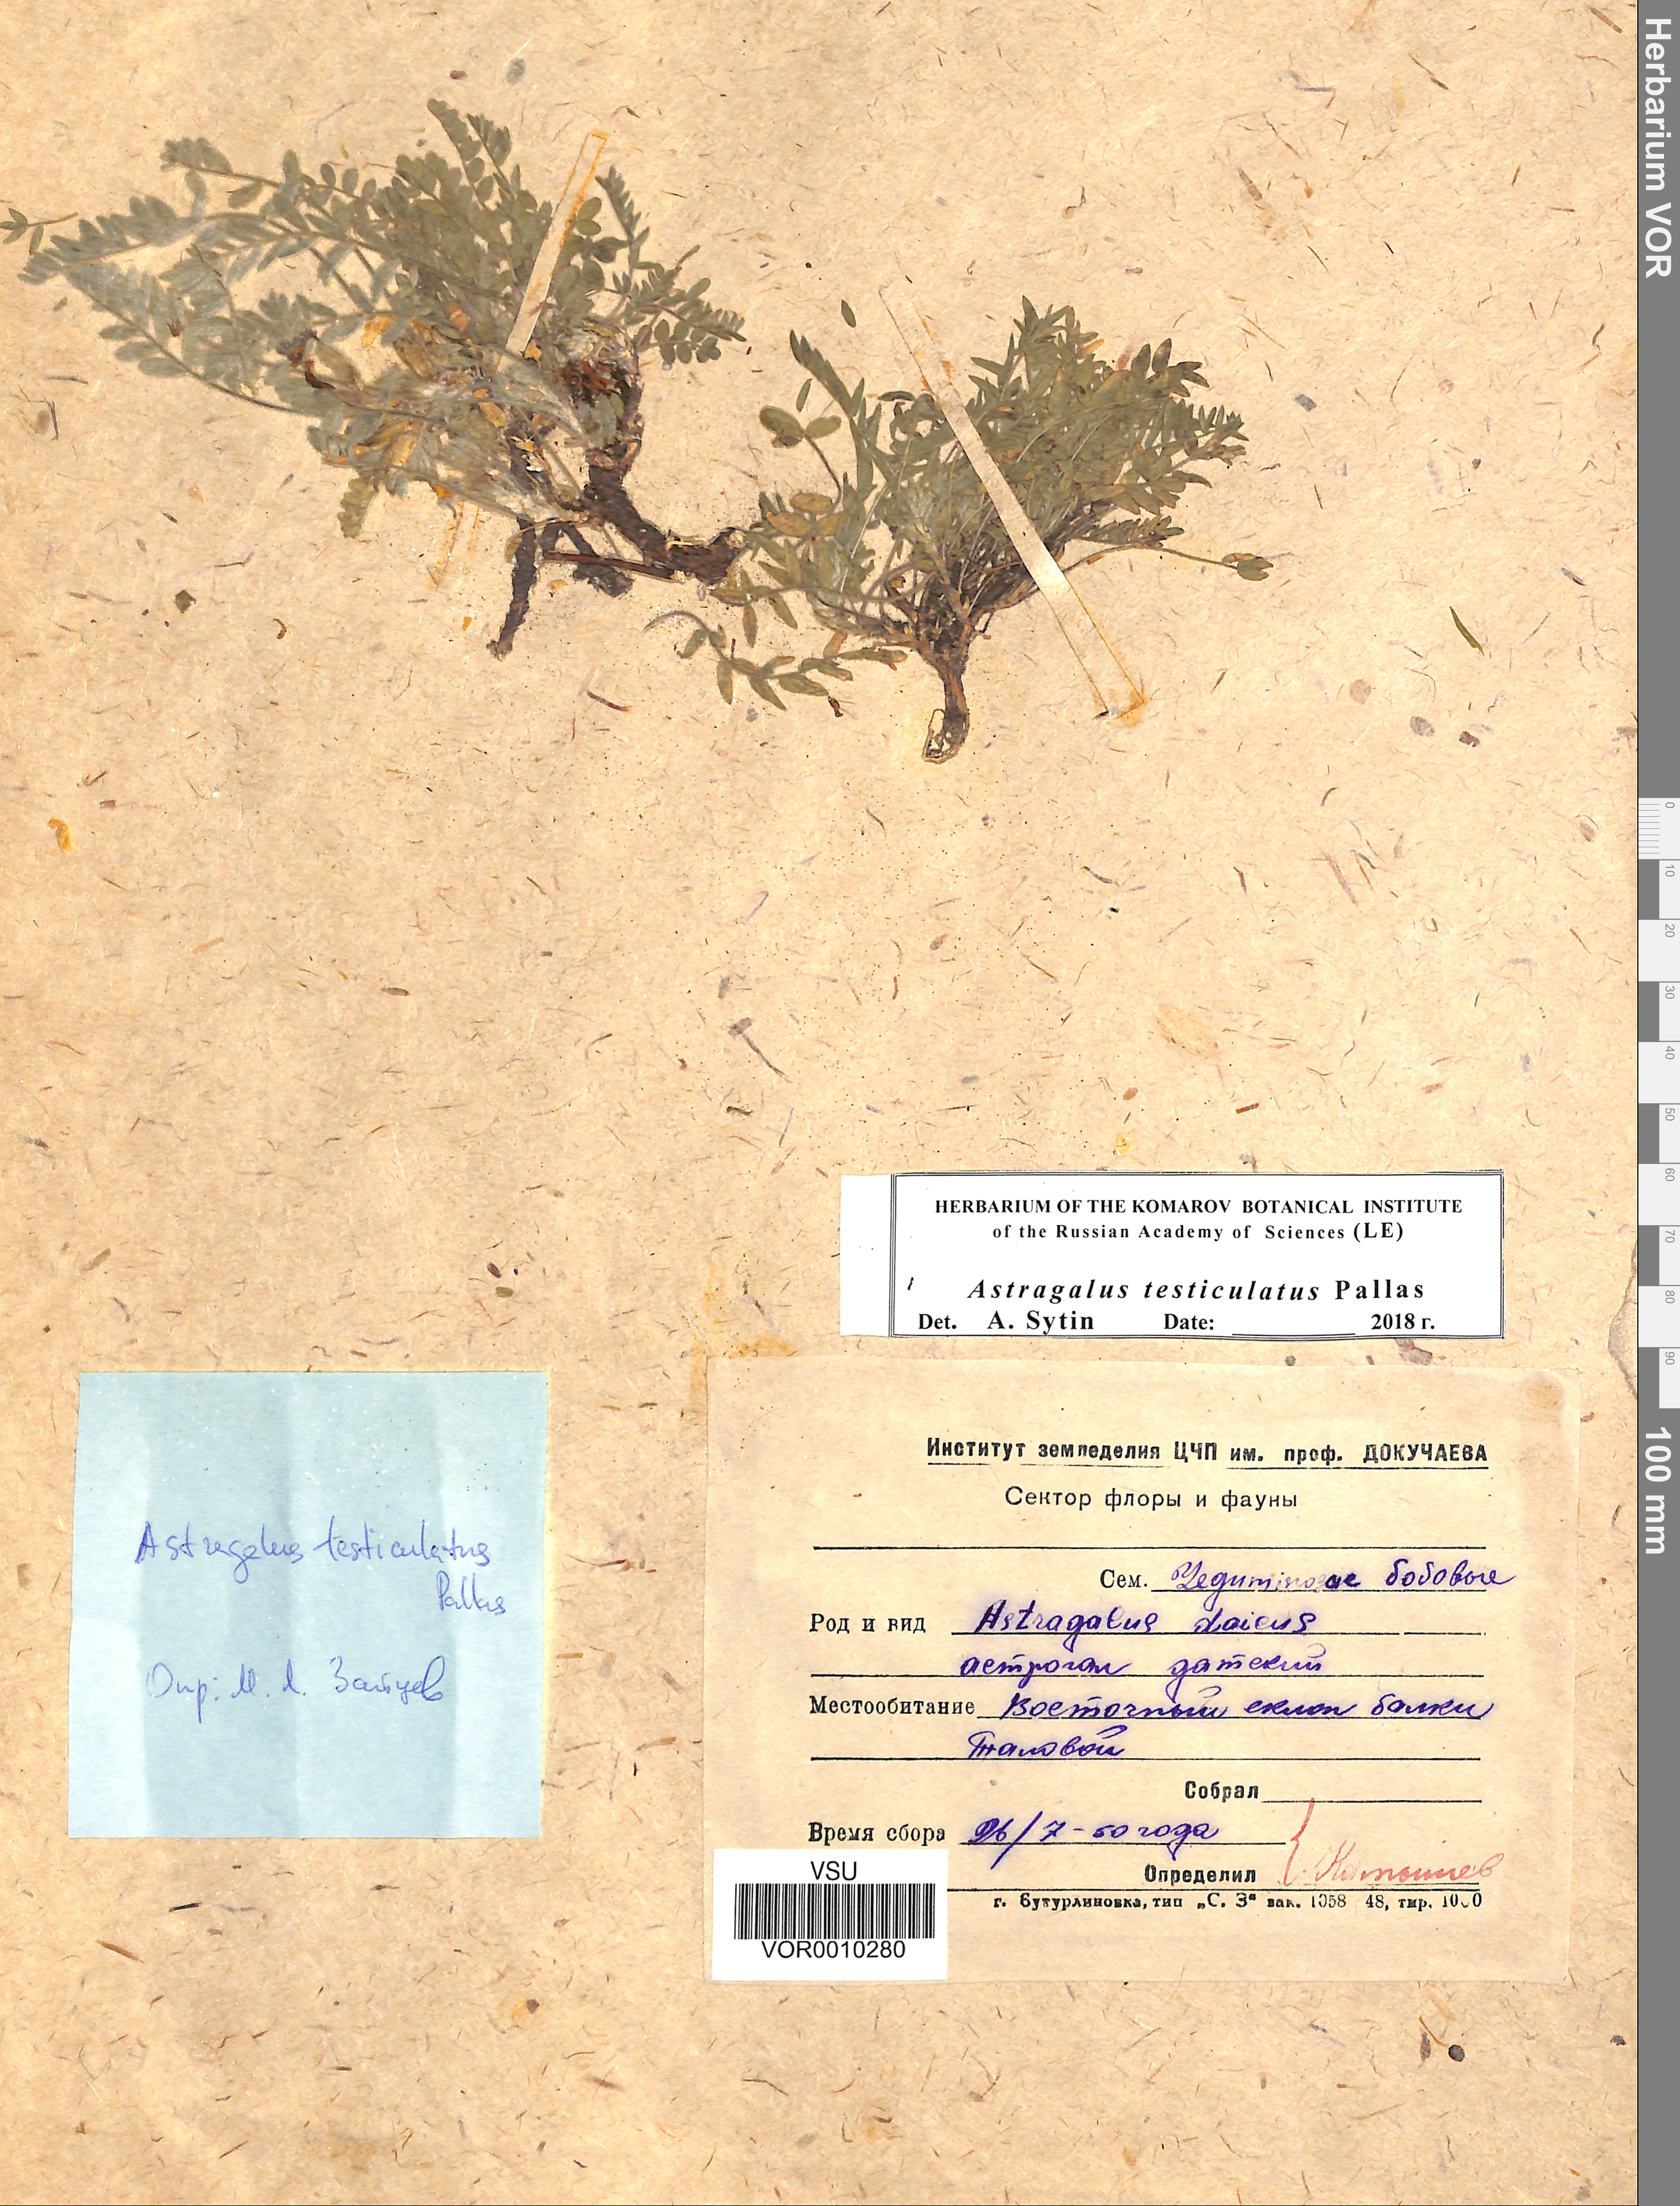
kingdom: Plantae
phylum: Tracheophyta
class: Magnoliopsida
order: Fabales
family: Fabaceae
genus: Astragalus
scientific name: Astragalus testiculatus
